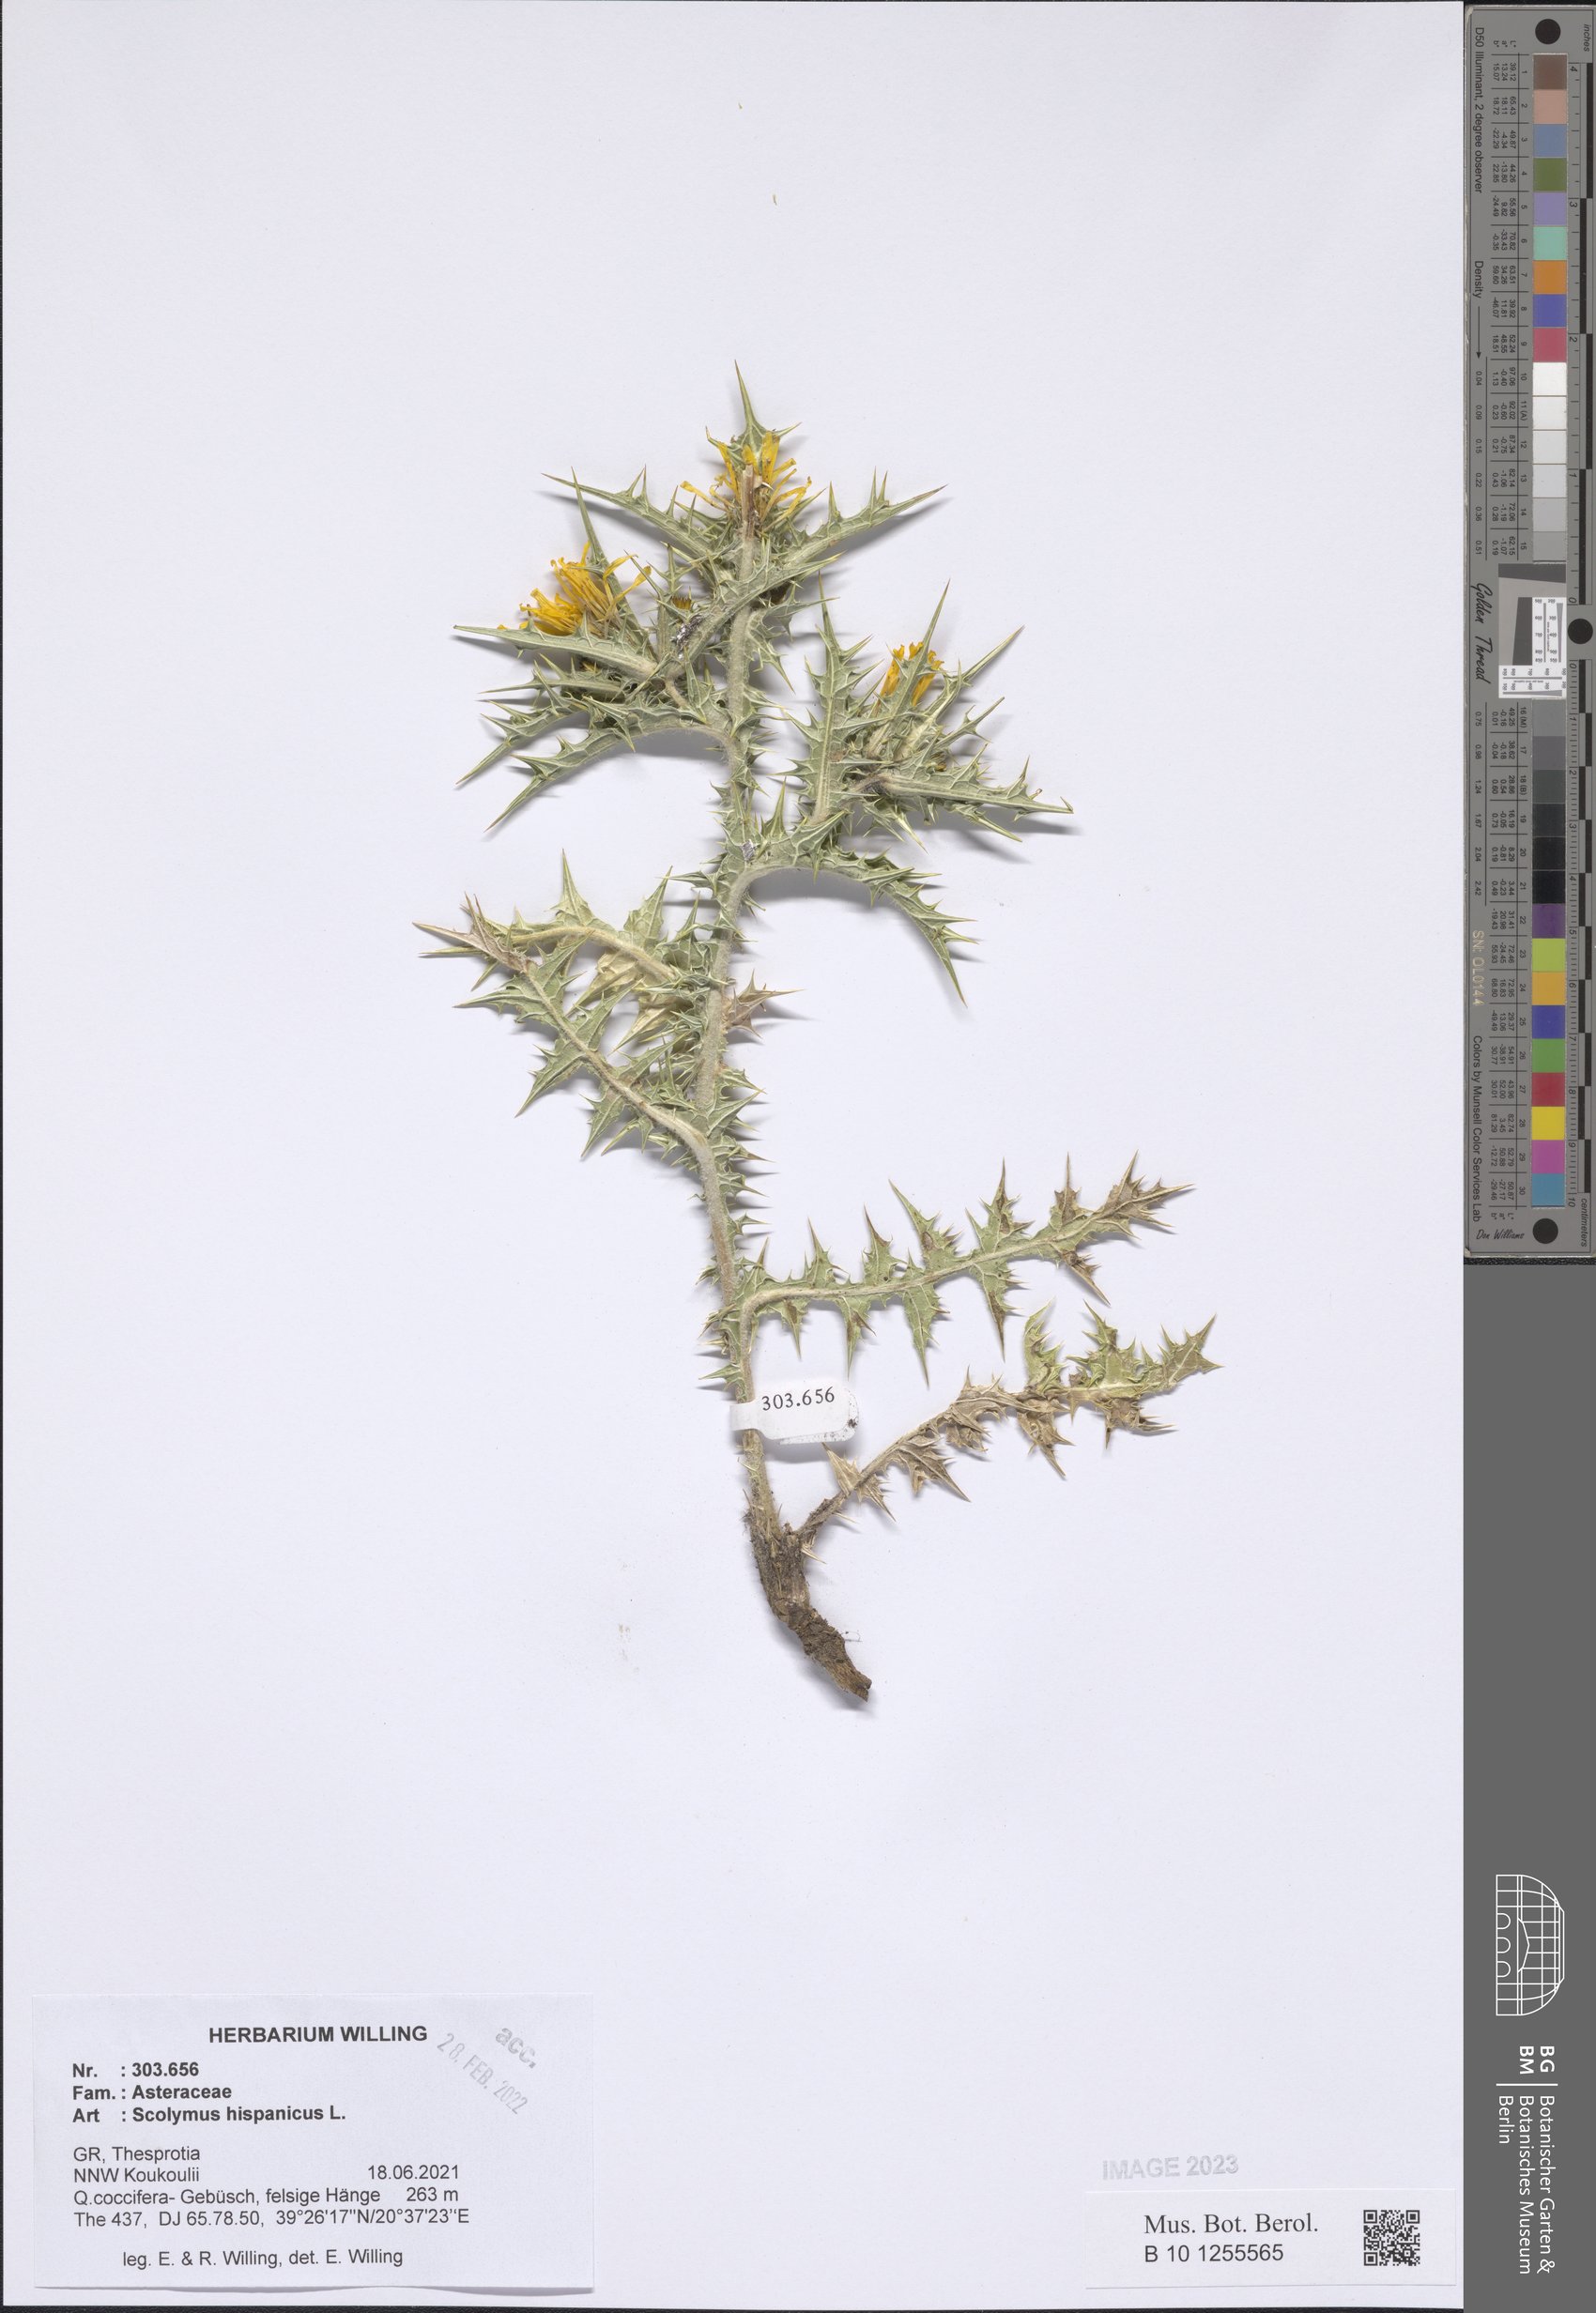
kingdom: Plantae
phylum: Tracheophyta
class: Magnoliopsida
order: Asterales
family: Asteraceae
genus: Scolymus
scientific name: Scolymus hispanicus
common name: Golden thistle
